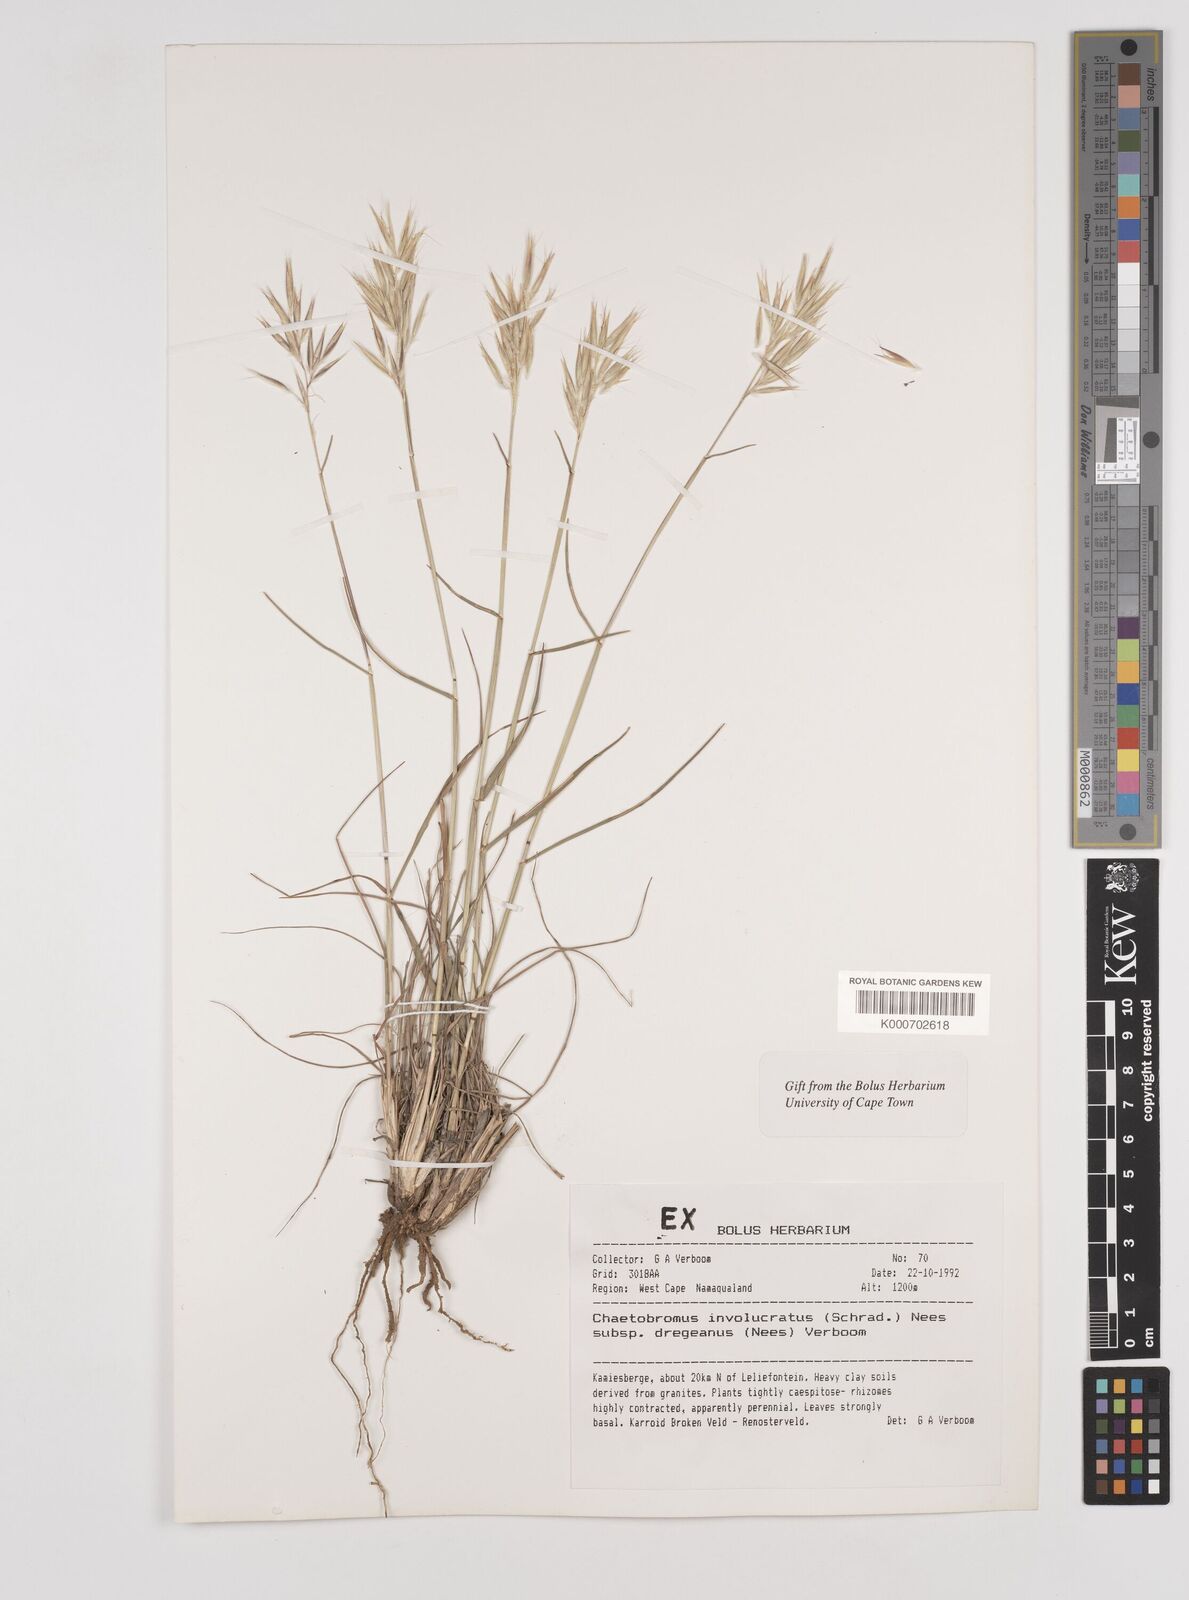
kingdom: Plantae
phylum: Tracheophyta
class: Liliopsida
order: Poales
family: Poaceae
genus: Chaetobromus
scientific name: Chaetobromus involucratus
